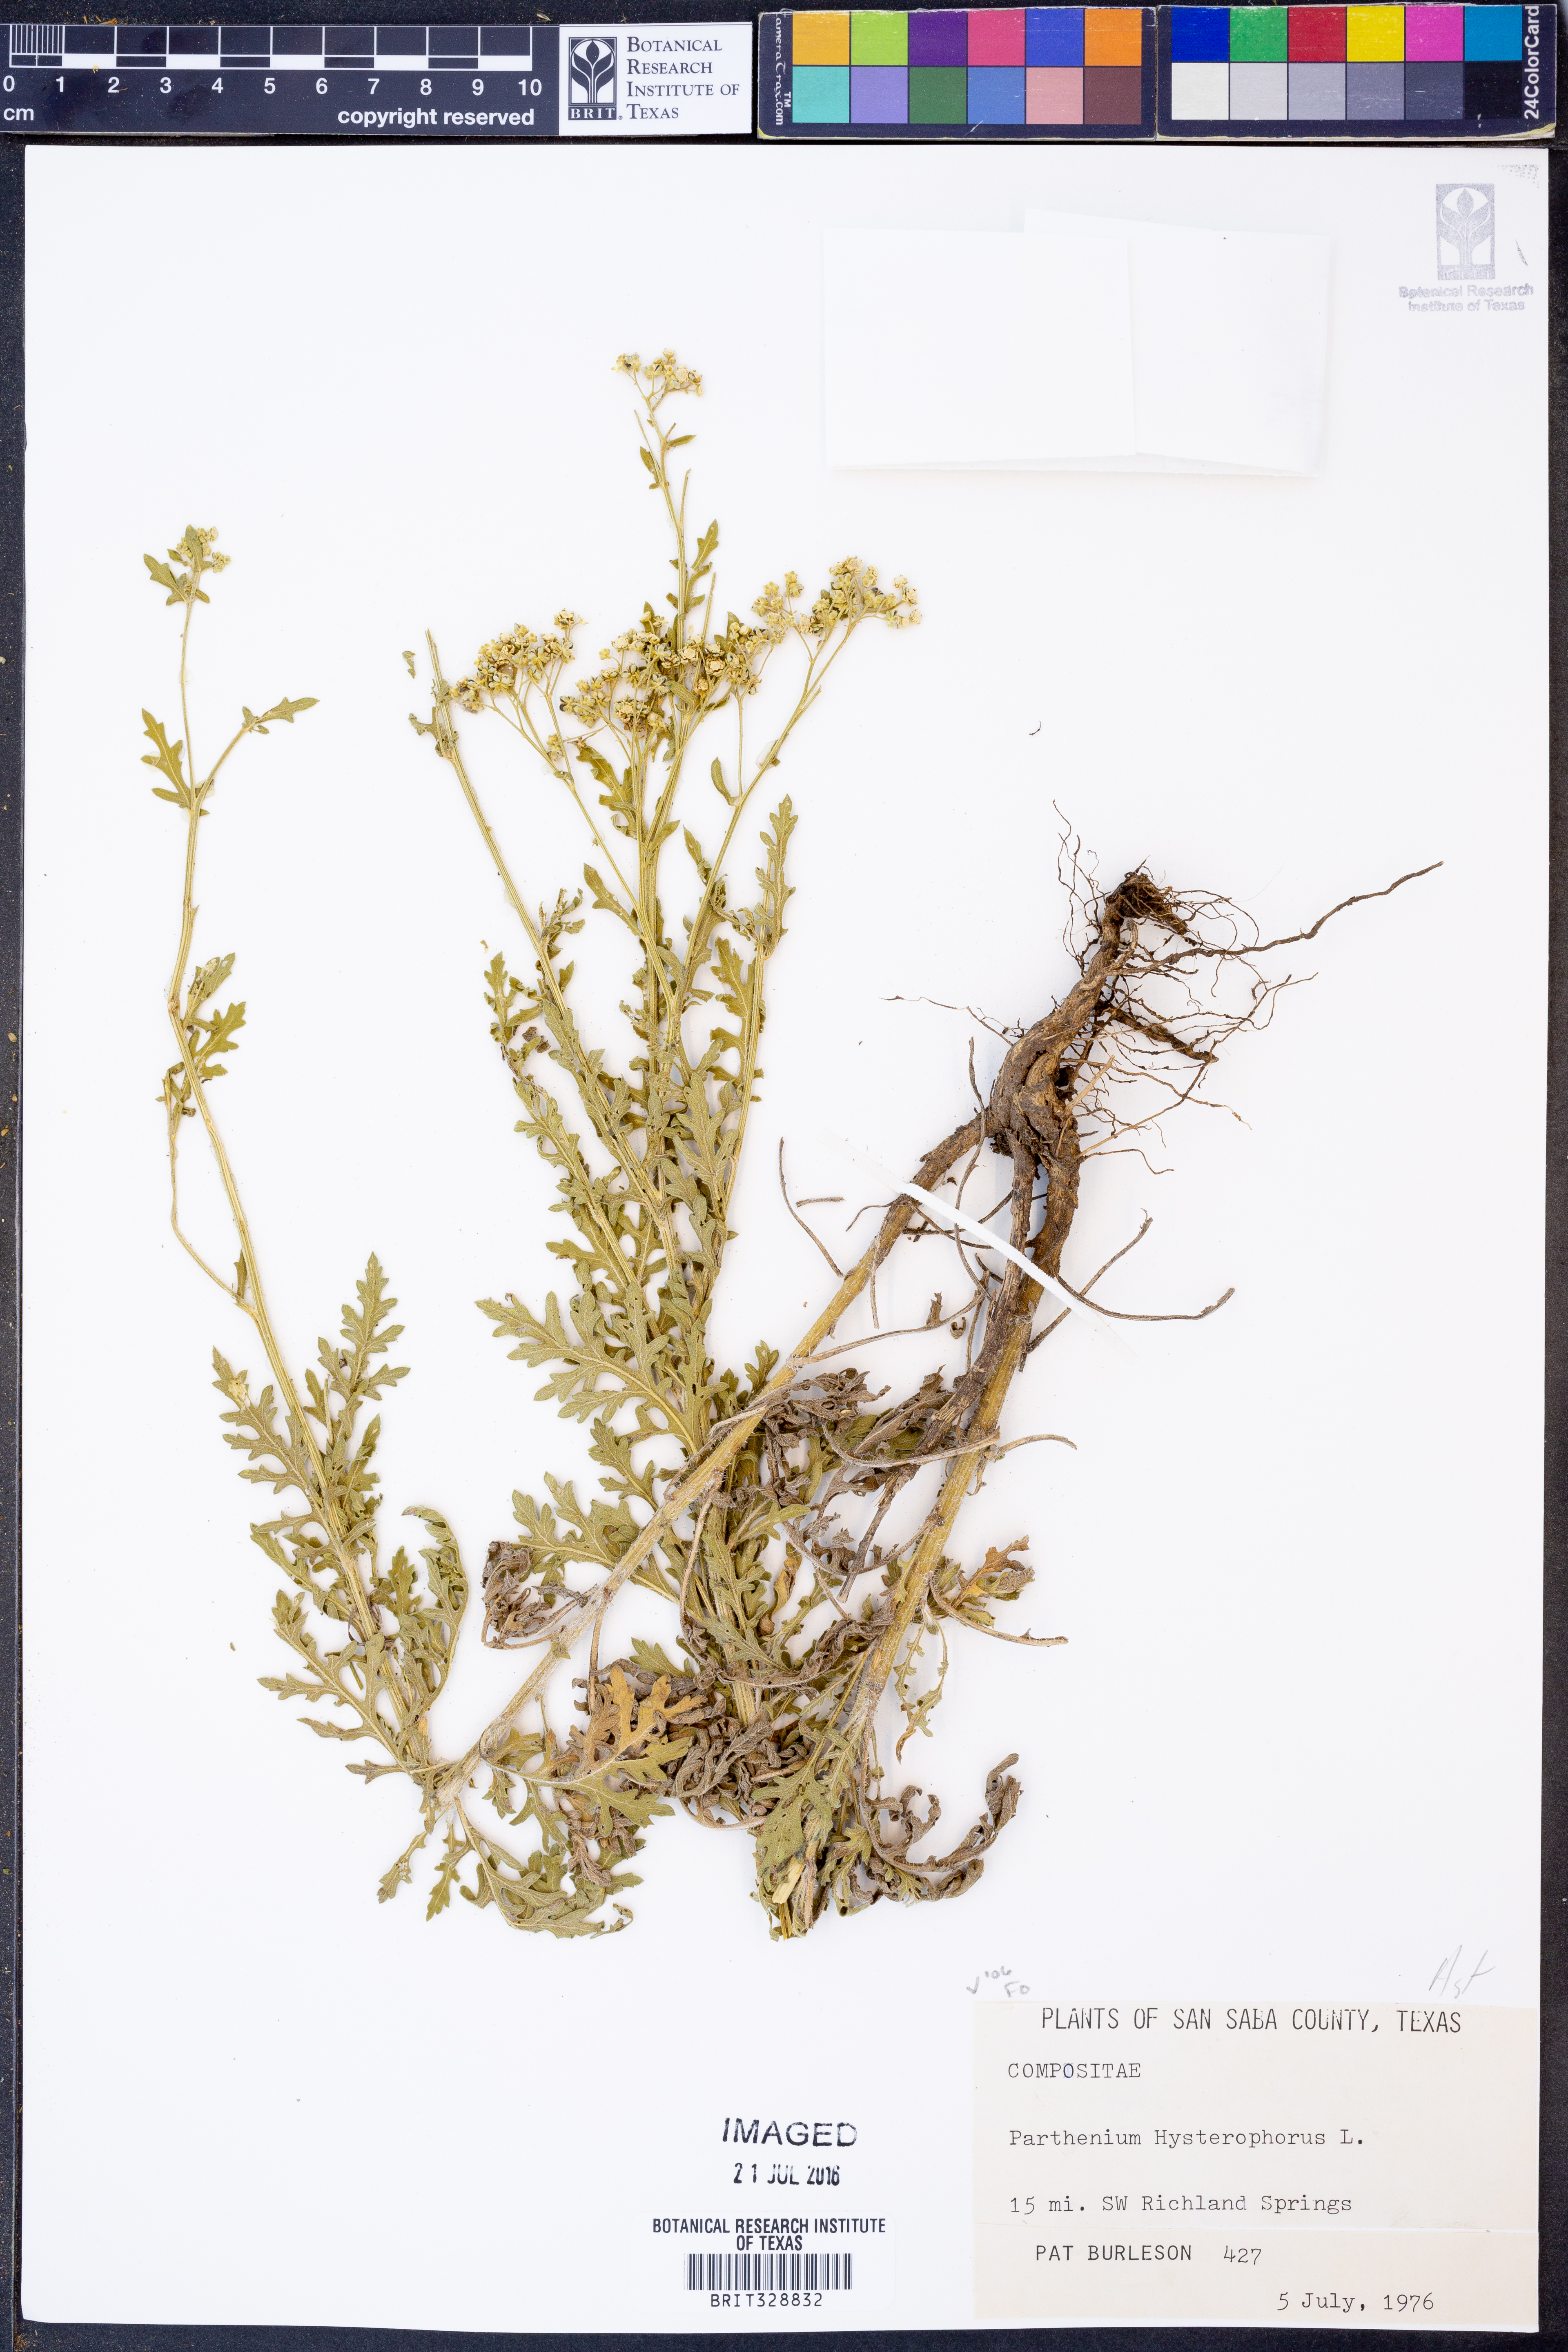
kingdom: Plantae
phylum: Tracheophyta
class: Magnoliopsida
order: Asterales
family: Asteraceae
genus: Parthenium
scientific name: Parthenium hysterophorus
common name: Santa maria feverfew
